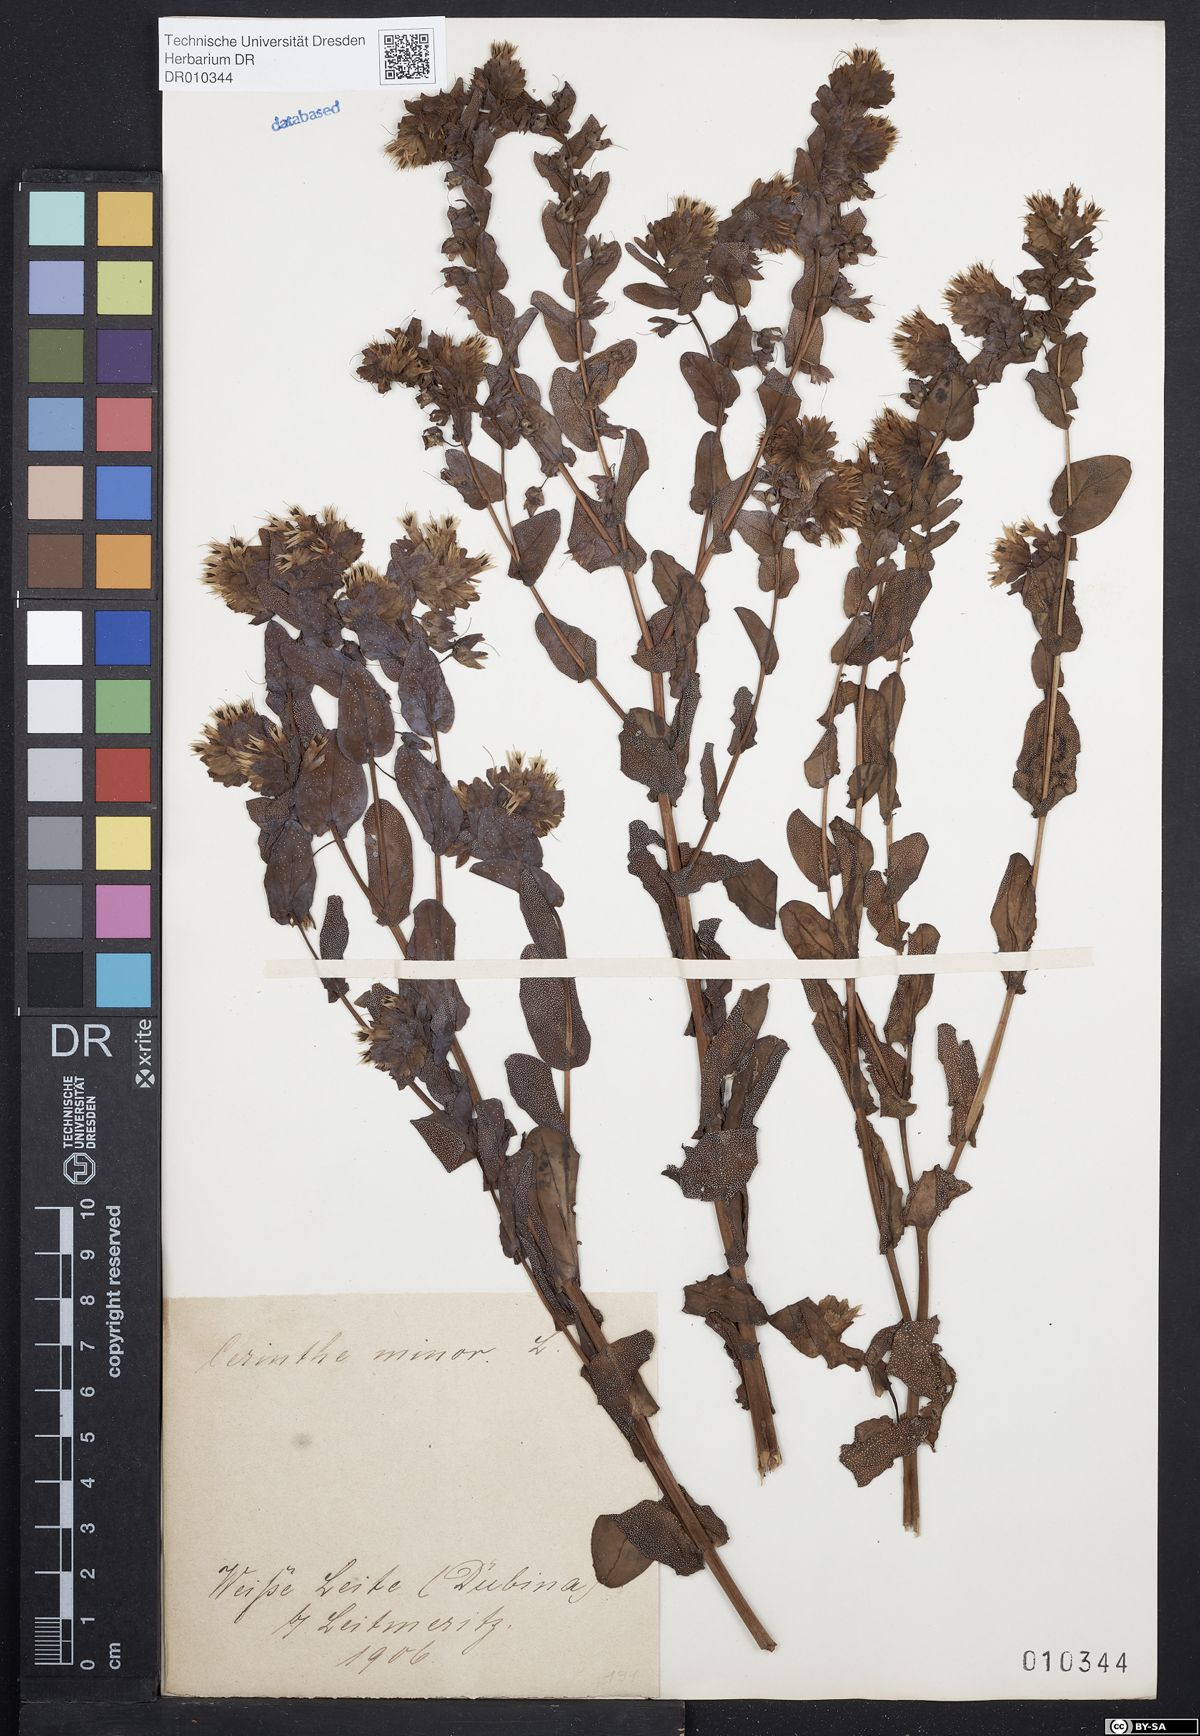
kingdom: Plantae
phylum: Tracheophyta
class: Magnoliopsida
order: Boraginales
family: Boraginaceae
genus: Cerinthe
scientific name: Cerinthe minor
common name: Lesser honeywort
